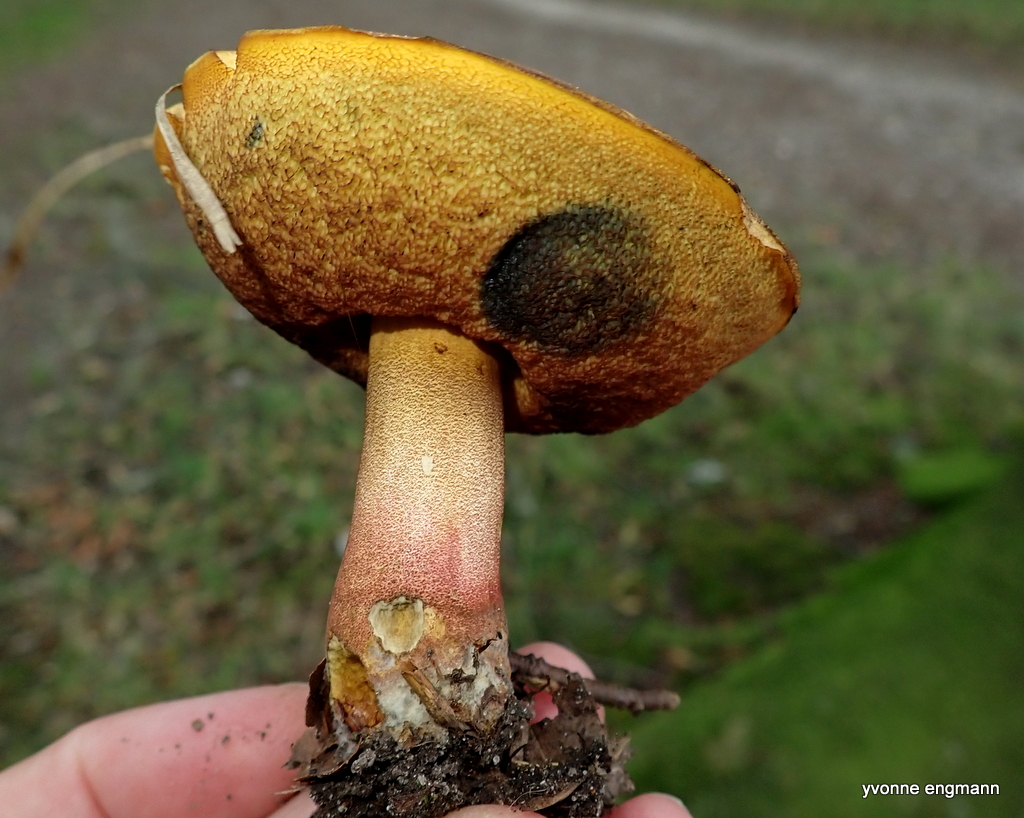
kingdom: Fungi
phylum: Basidiomycota
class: Agaricomycetes
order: Boletales
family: Boletaceae
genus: Neoboletus
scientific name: Neoboletus erythropus
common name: punktstokket indigorørhat
